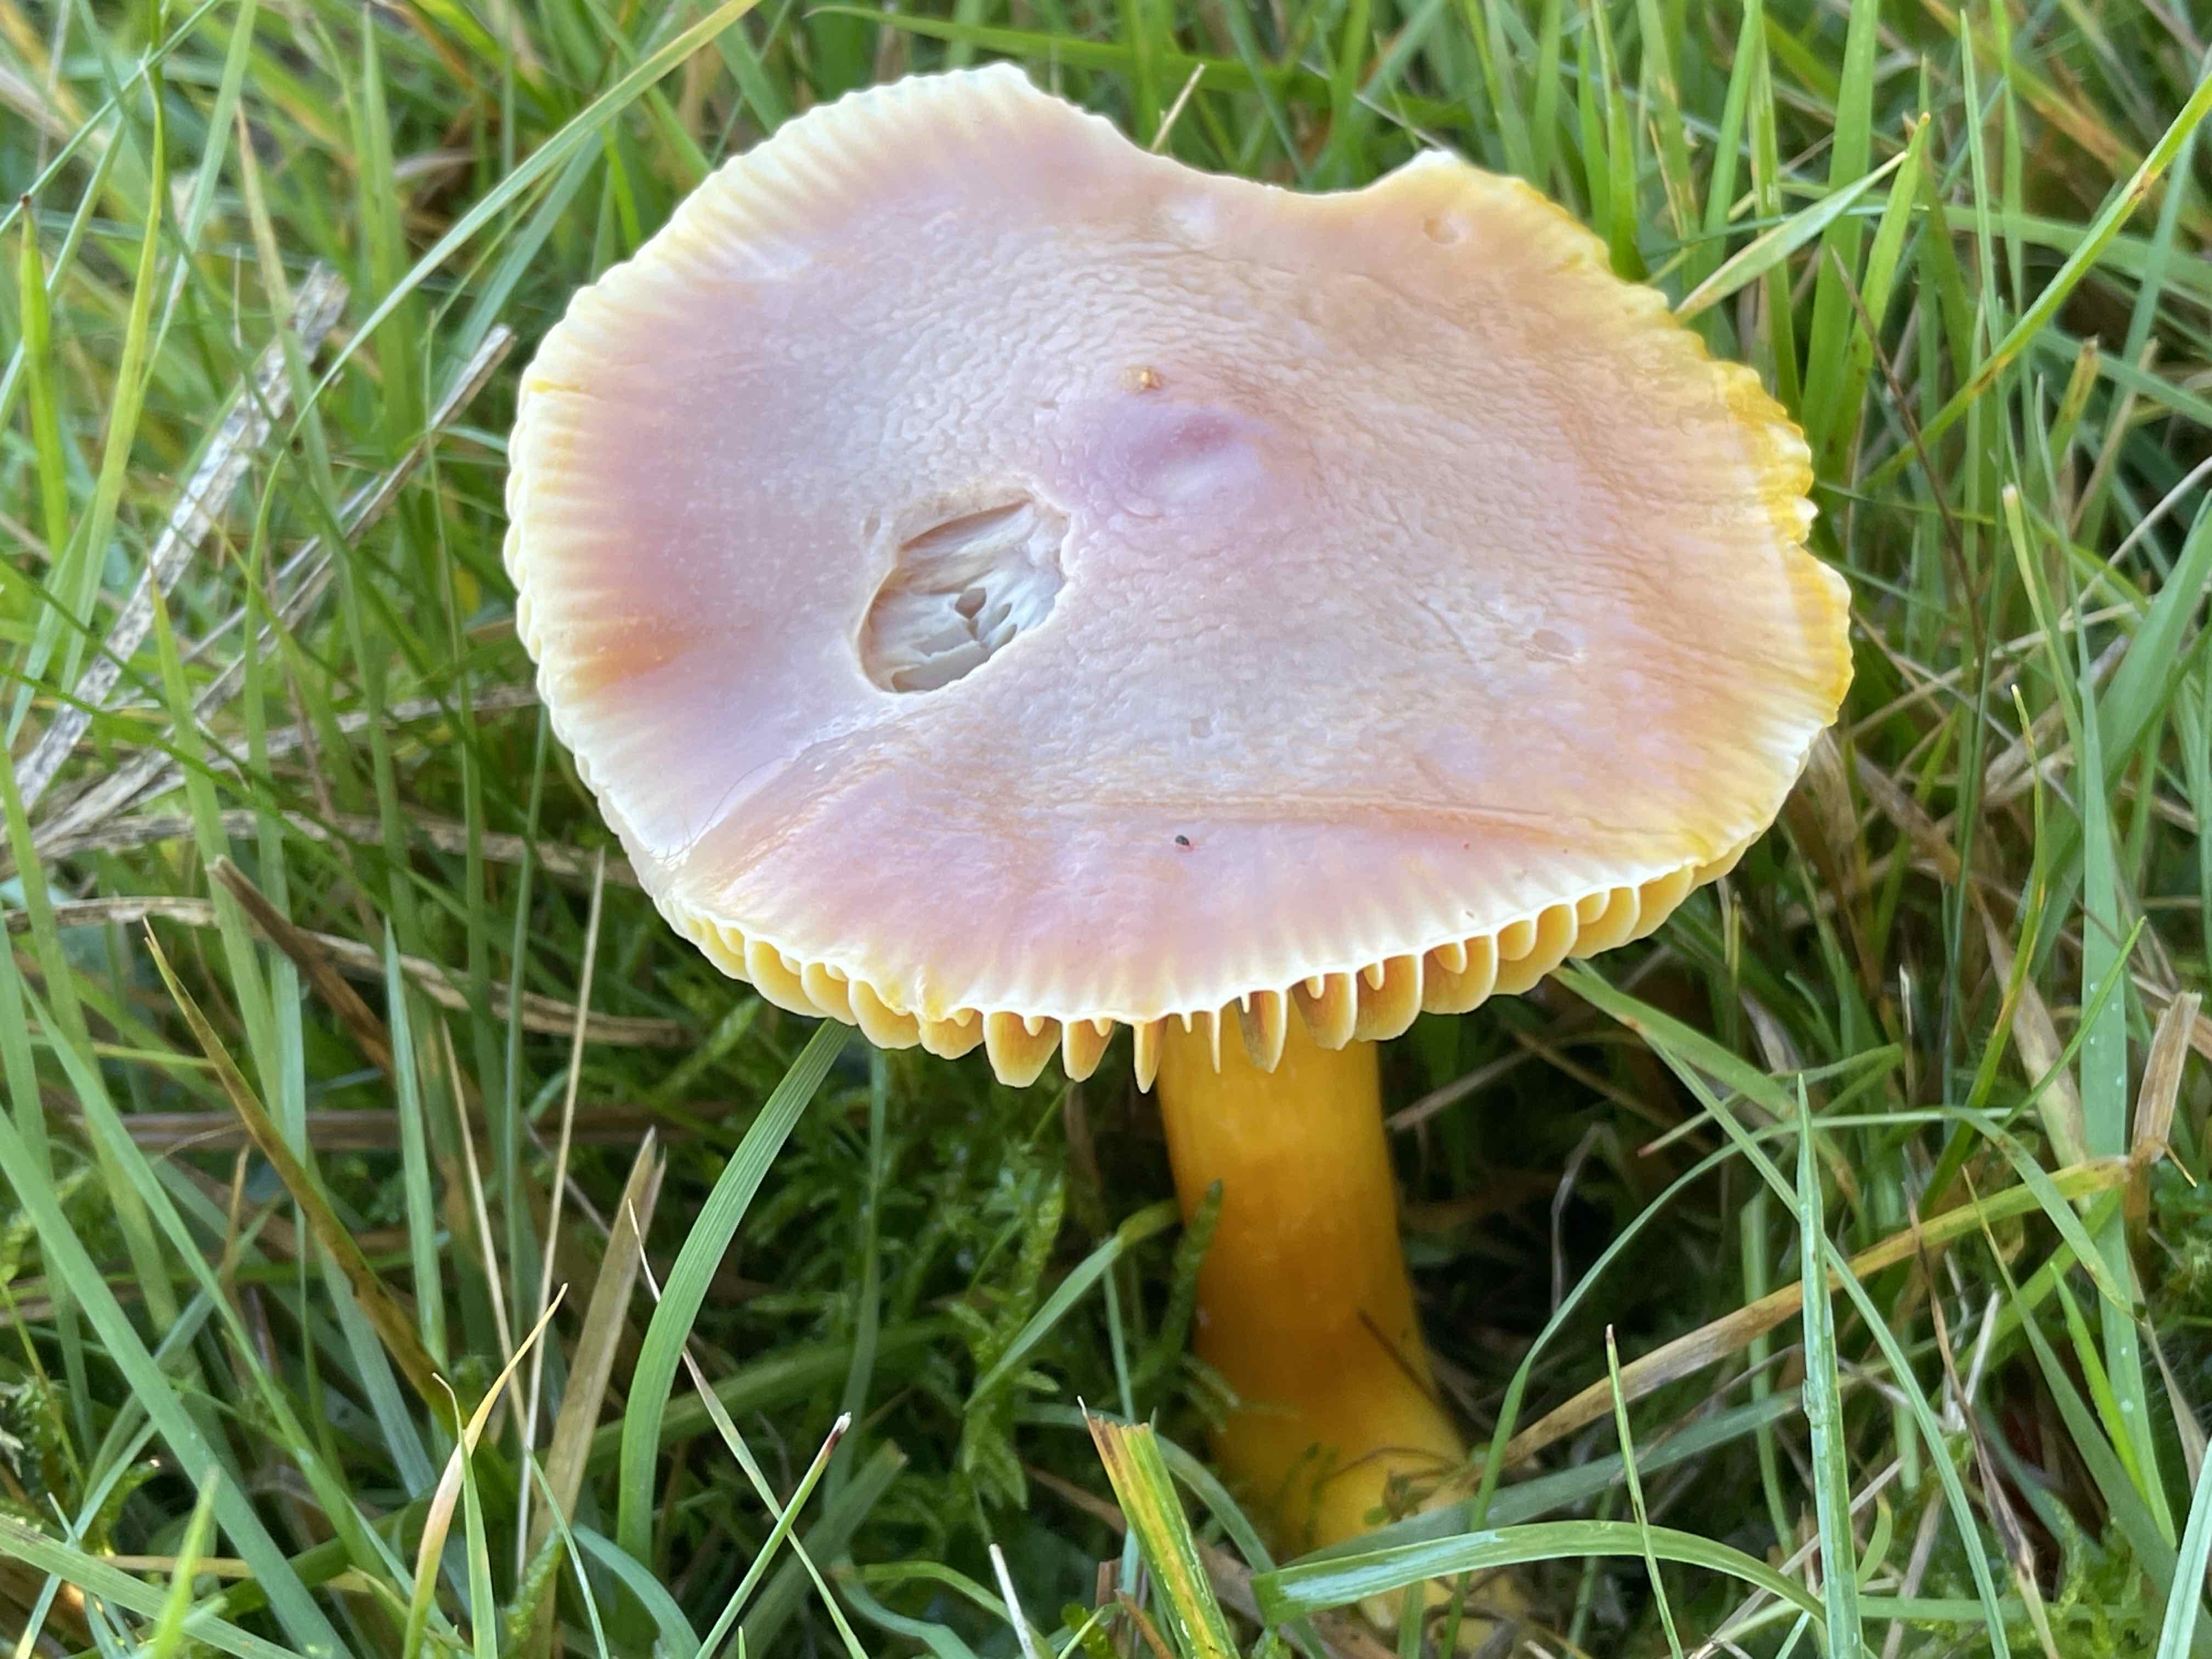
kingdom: Fungi
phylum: Basidiomycota
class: Agaricomycetes
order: Agaricales
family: Hygrophoraceae
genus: Hygrocybe
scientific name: Hygrocybe punicea
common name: skarlagen-vokshat
